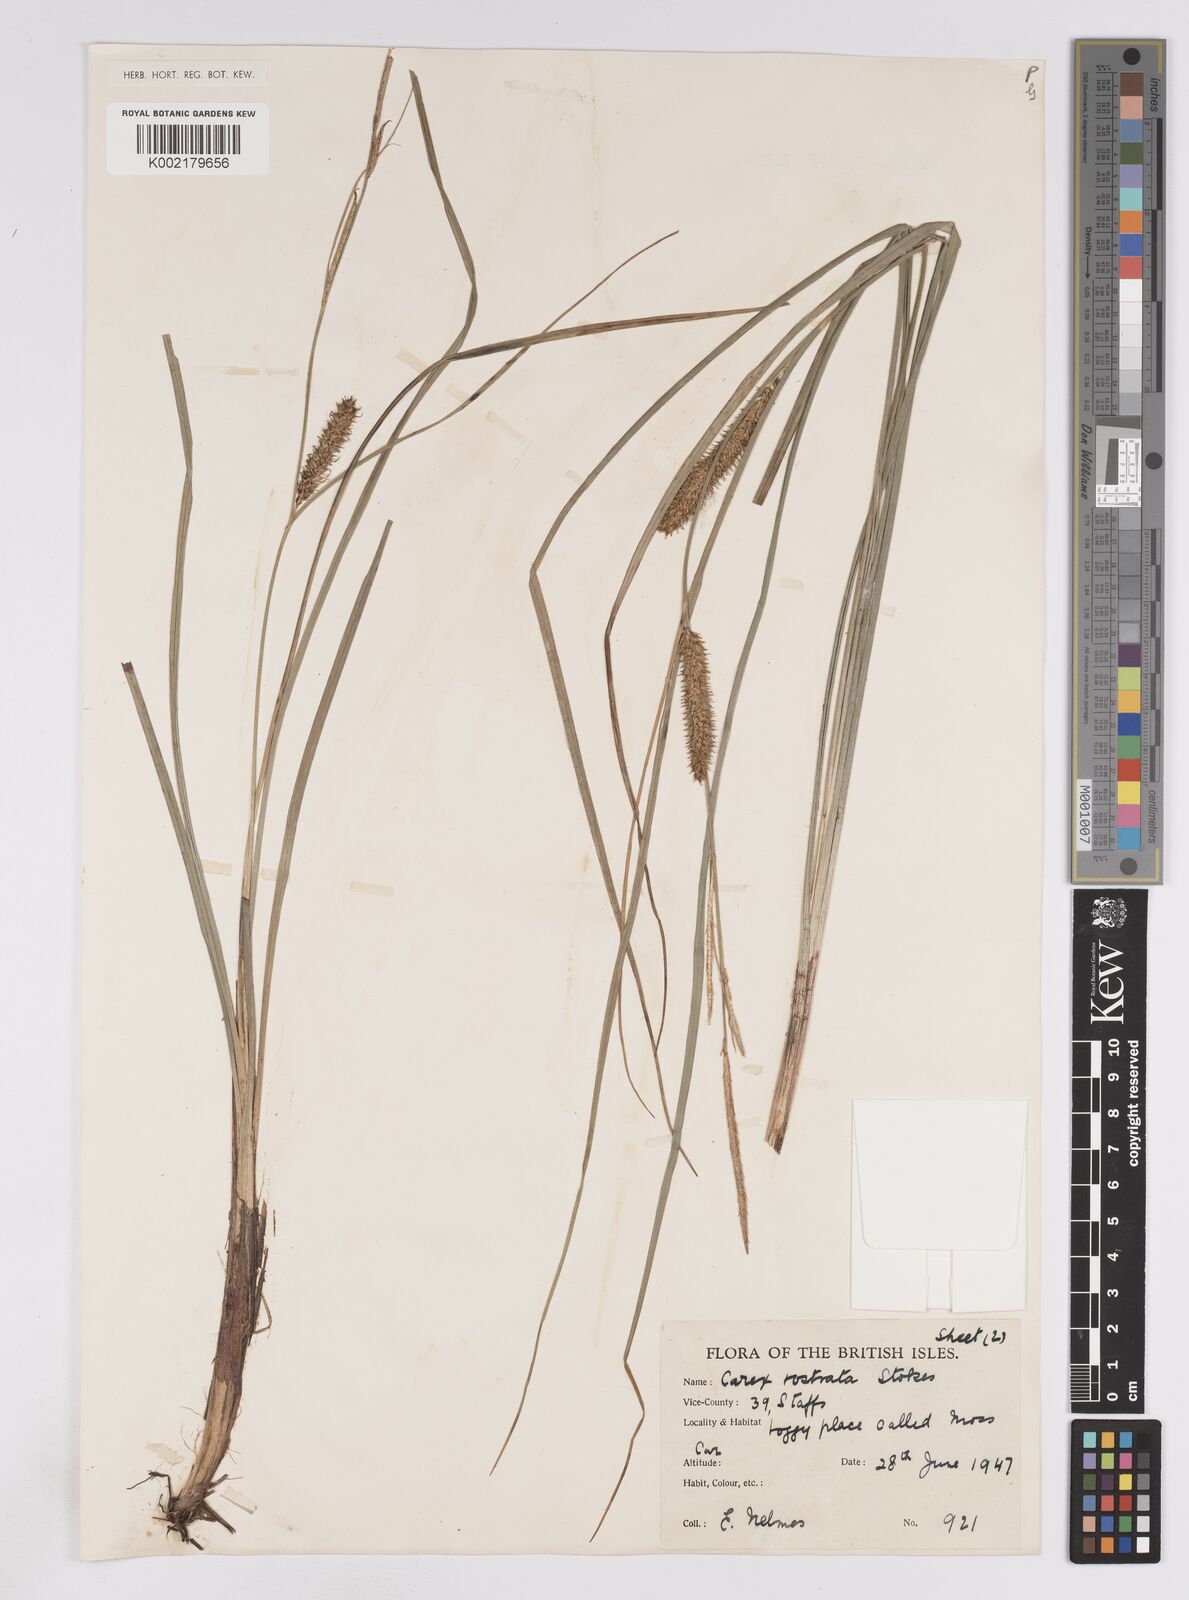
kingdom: Plantae
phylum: Tracheophyta
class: Liliopsida
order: Poales
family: Cyperaceae
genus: Carex
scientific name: Carex rostrata
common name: Bottle sedge
